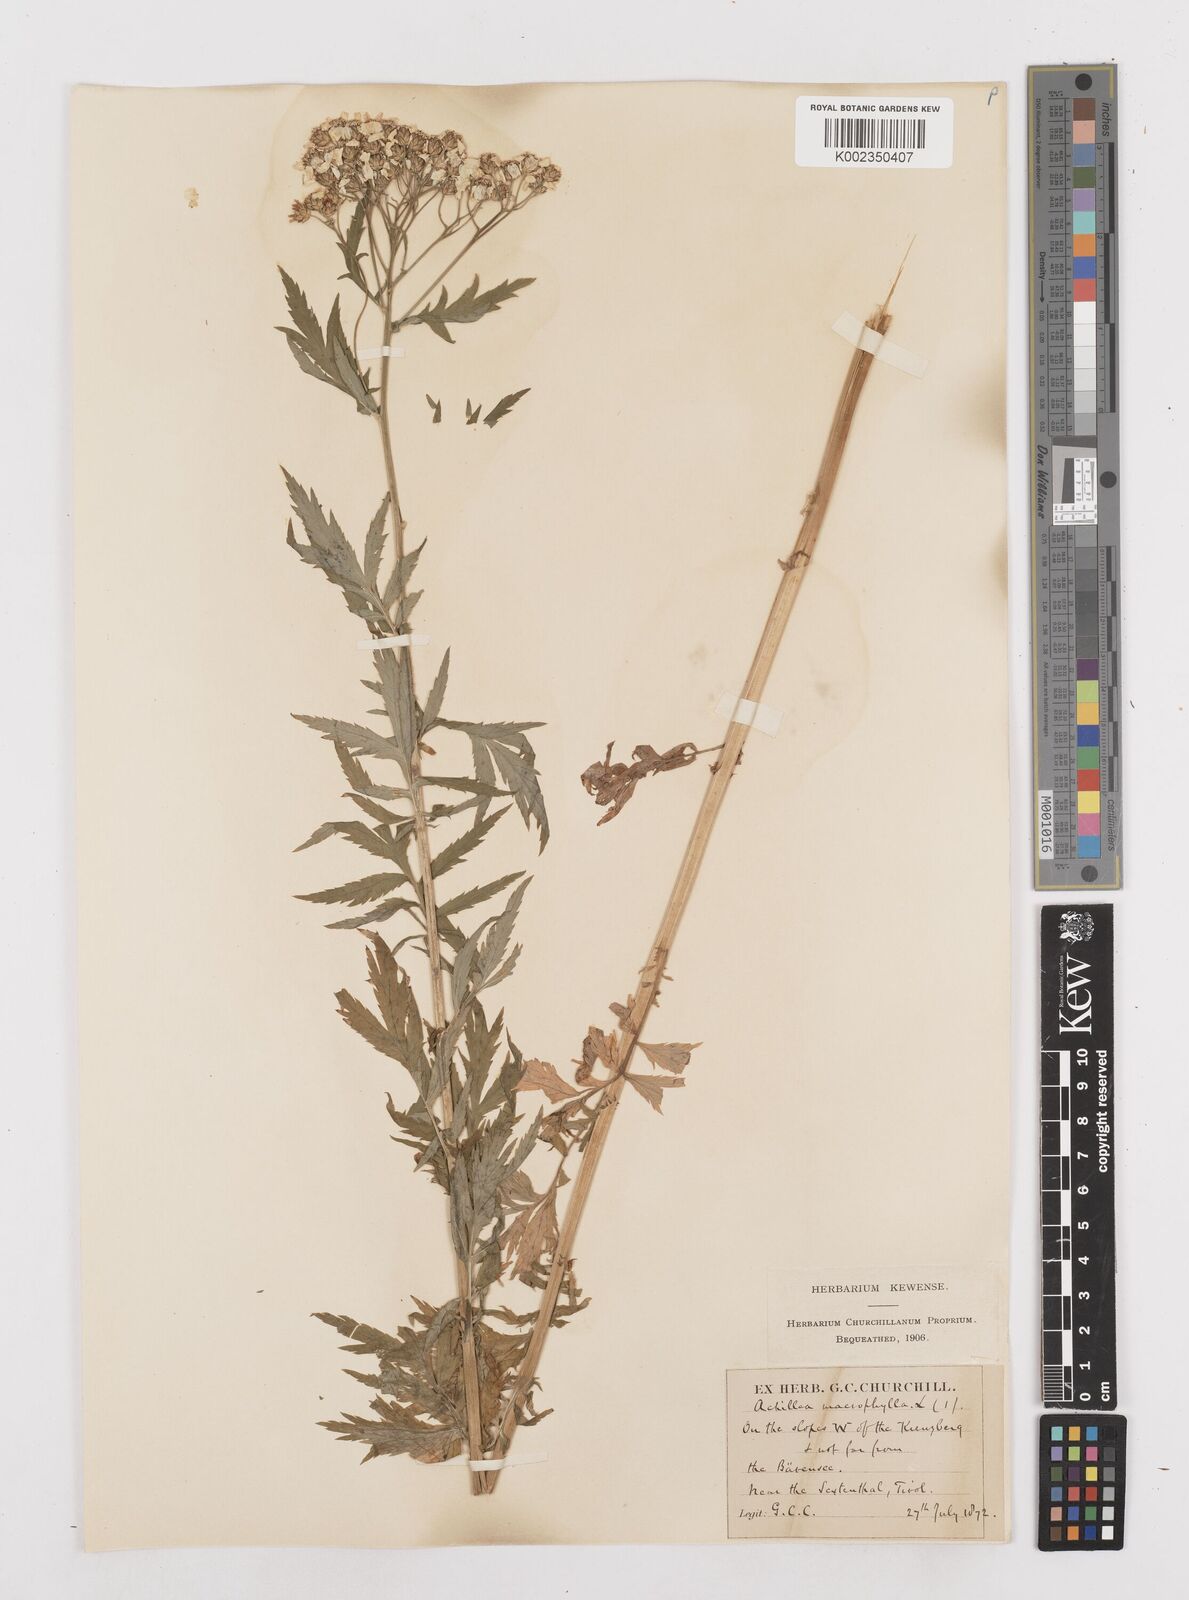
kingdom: Plantae
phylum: Tracheophyta
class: Magnoliopsida
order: Asterales
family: Asteraceae
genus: Achillea
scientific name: Achillea macrophylla
